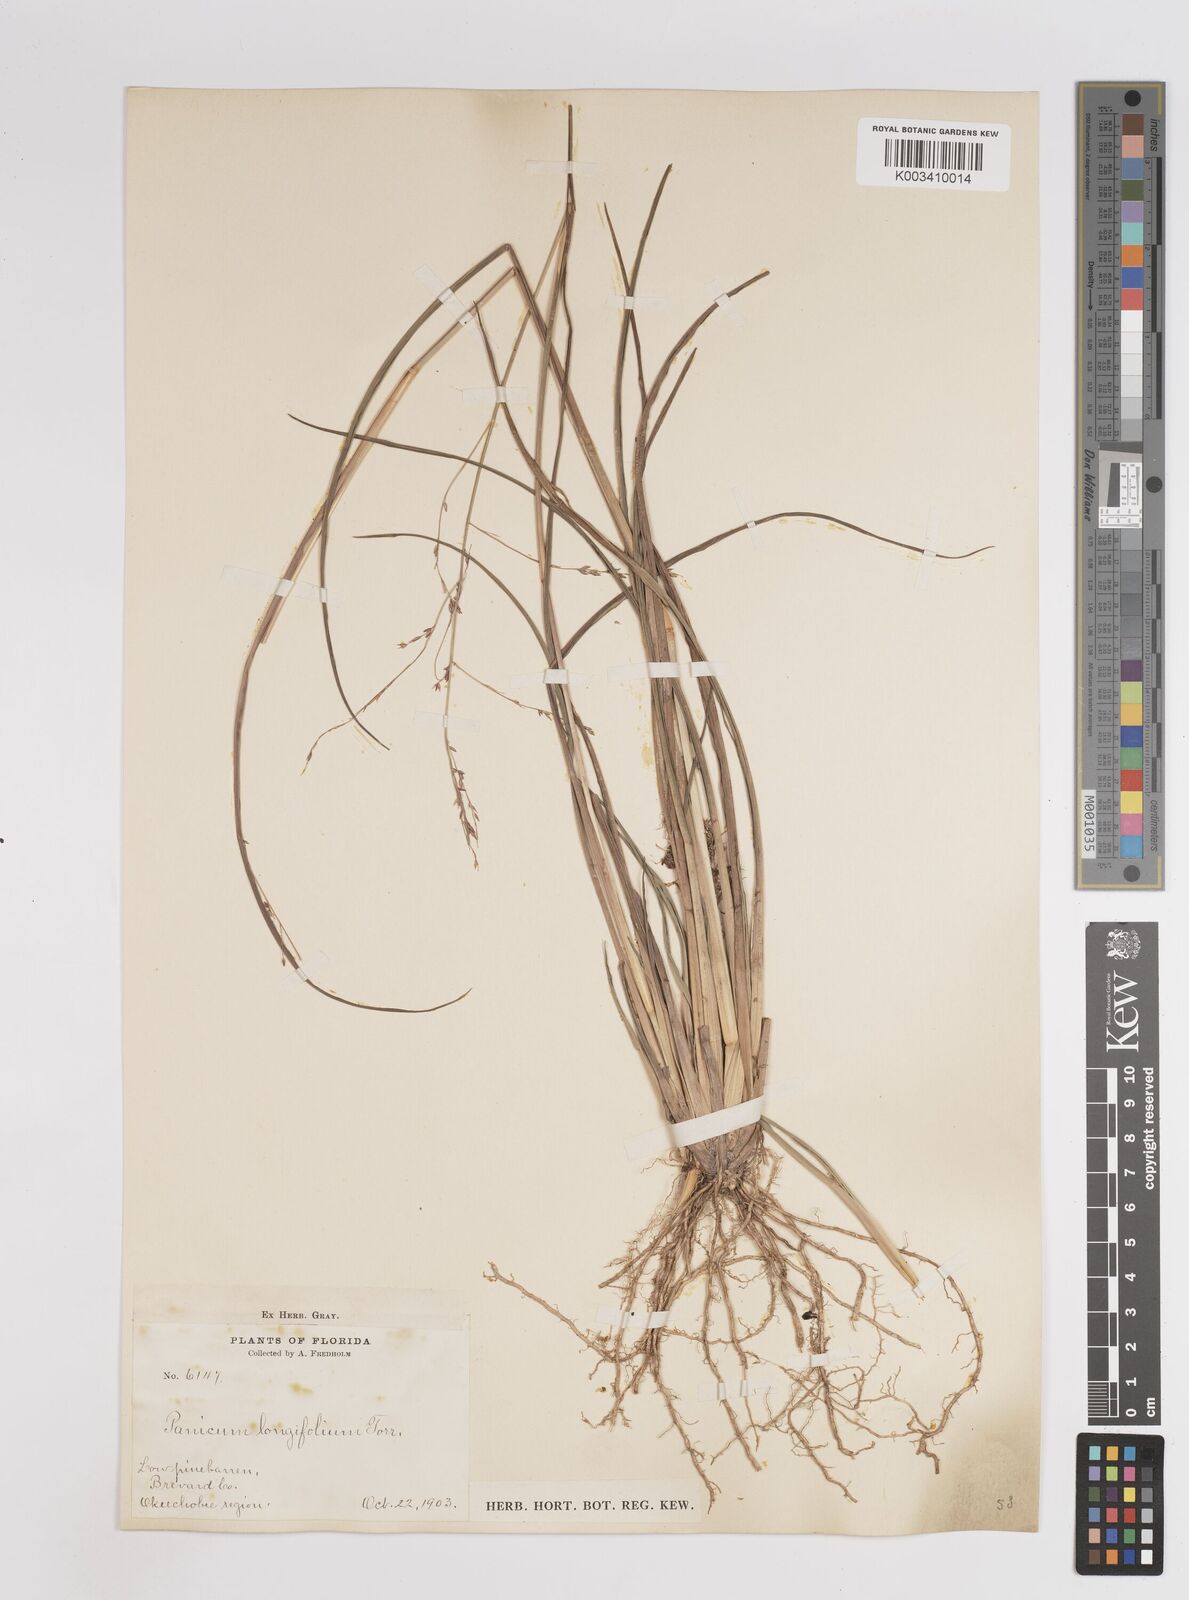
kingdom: Plantae
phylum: Tracheophyta
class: Liliopsida
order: Poales
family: Poaceae
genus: Coleataenia
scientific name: Coleataenia longifolia
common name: Long-leaved panicgrass
